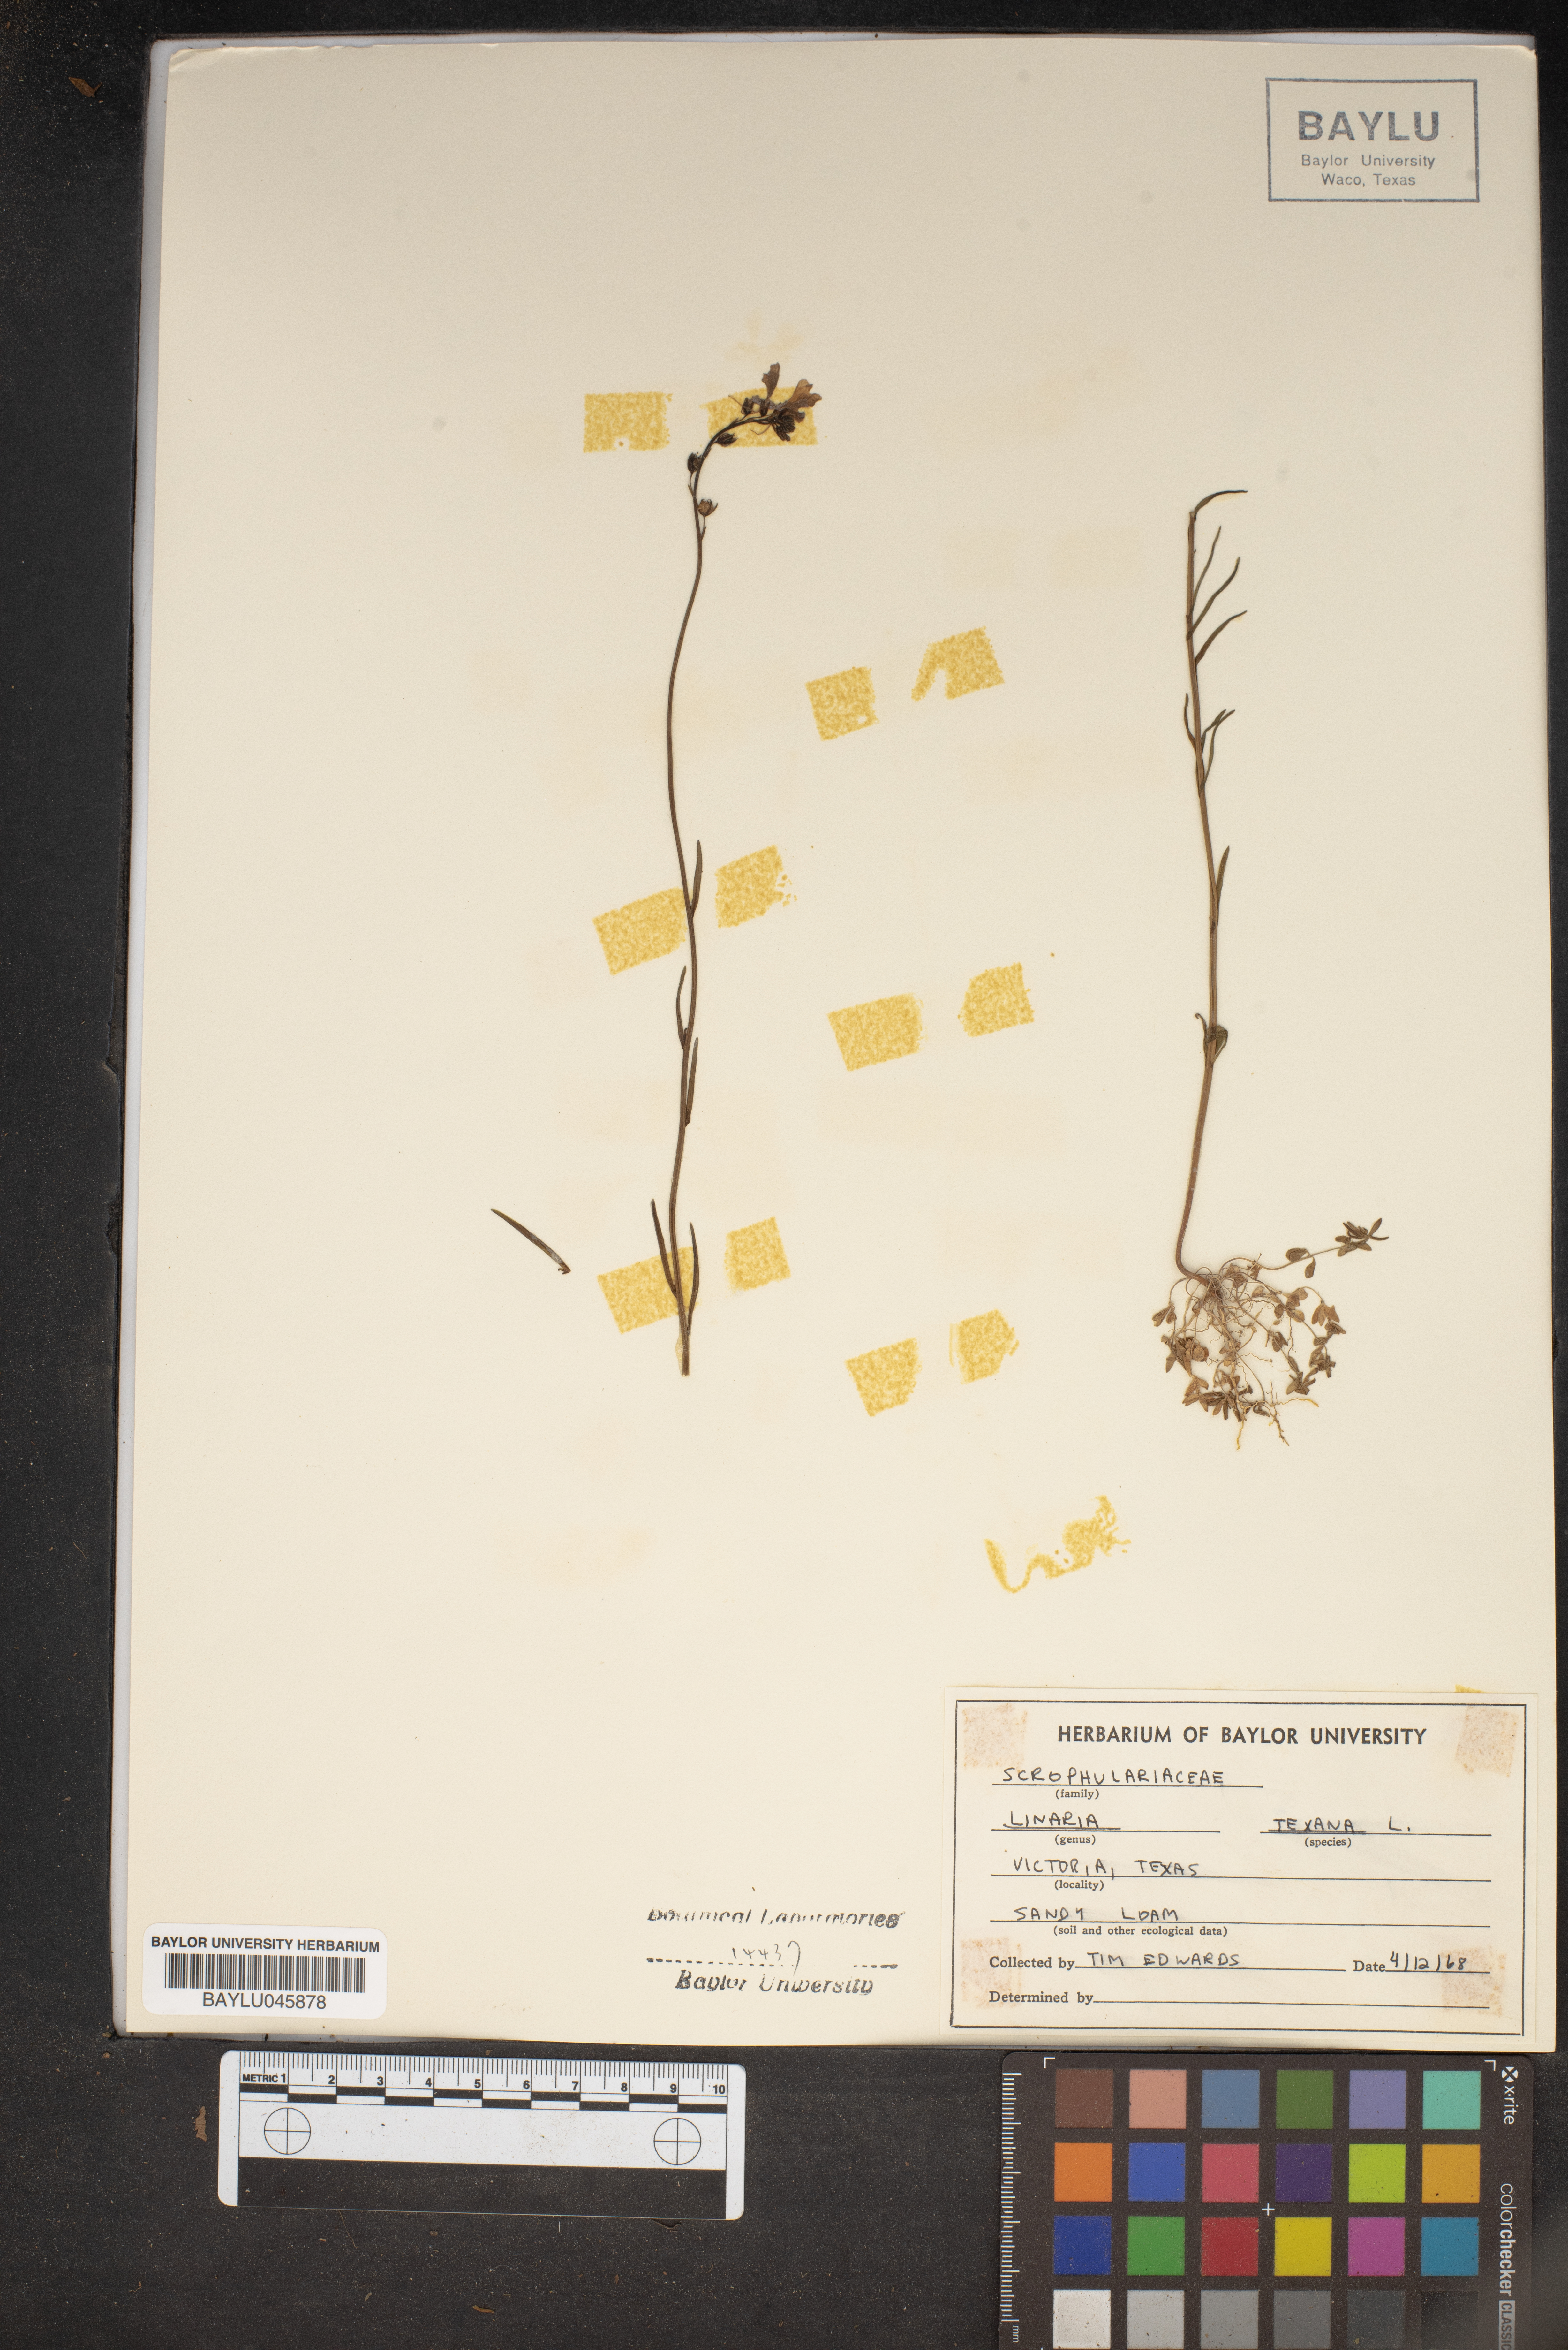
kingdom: Plantae
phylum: Tracheophyta
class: Magnoliopsida
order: Lamiales
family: Plantaginaceae
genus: Nuttallanthus
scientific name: Nuttallanthus texanus
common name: Texas toadflax
